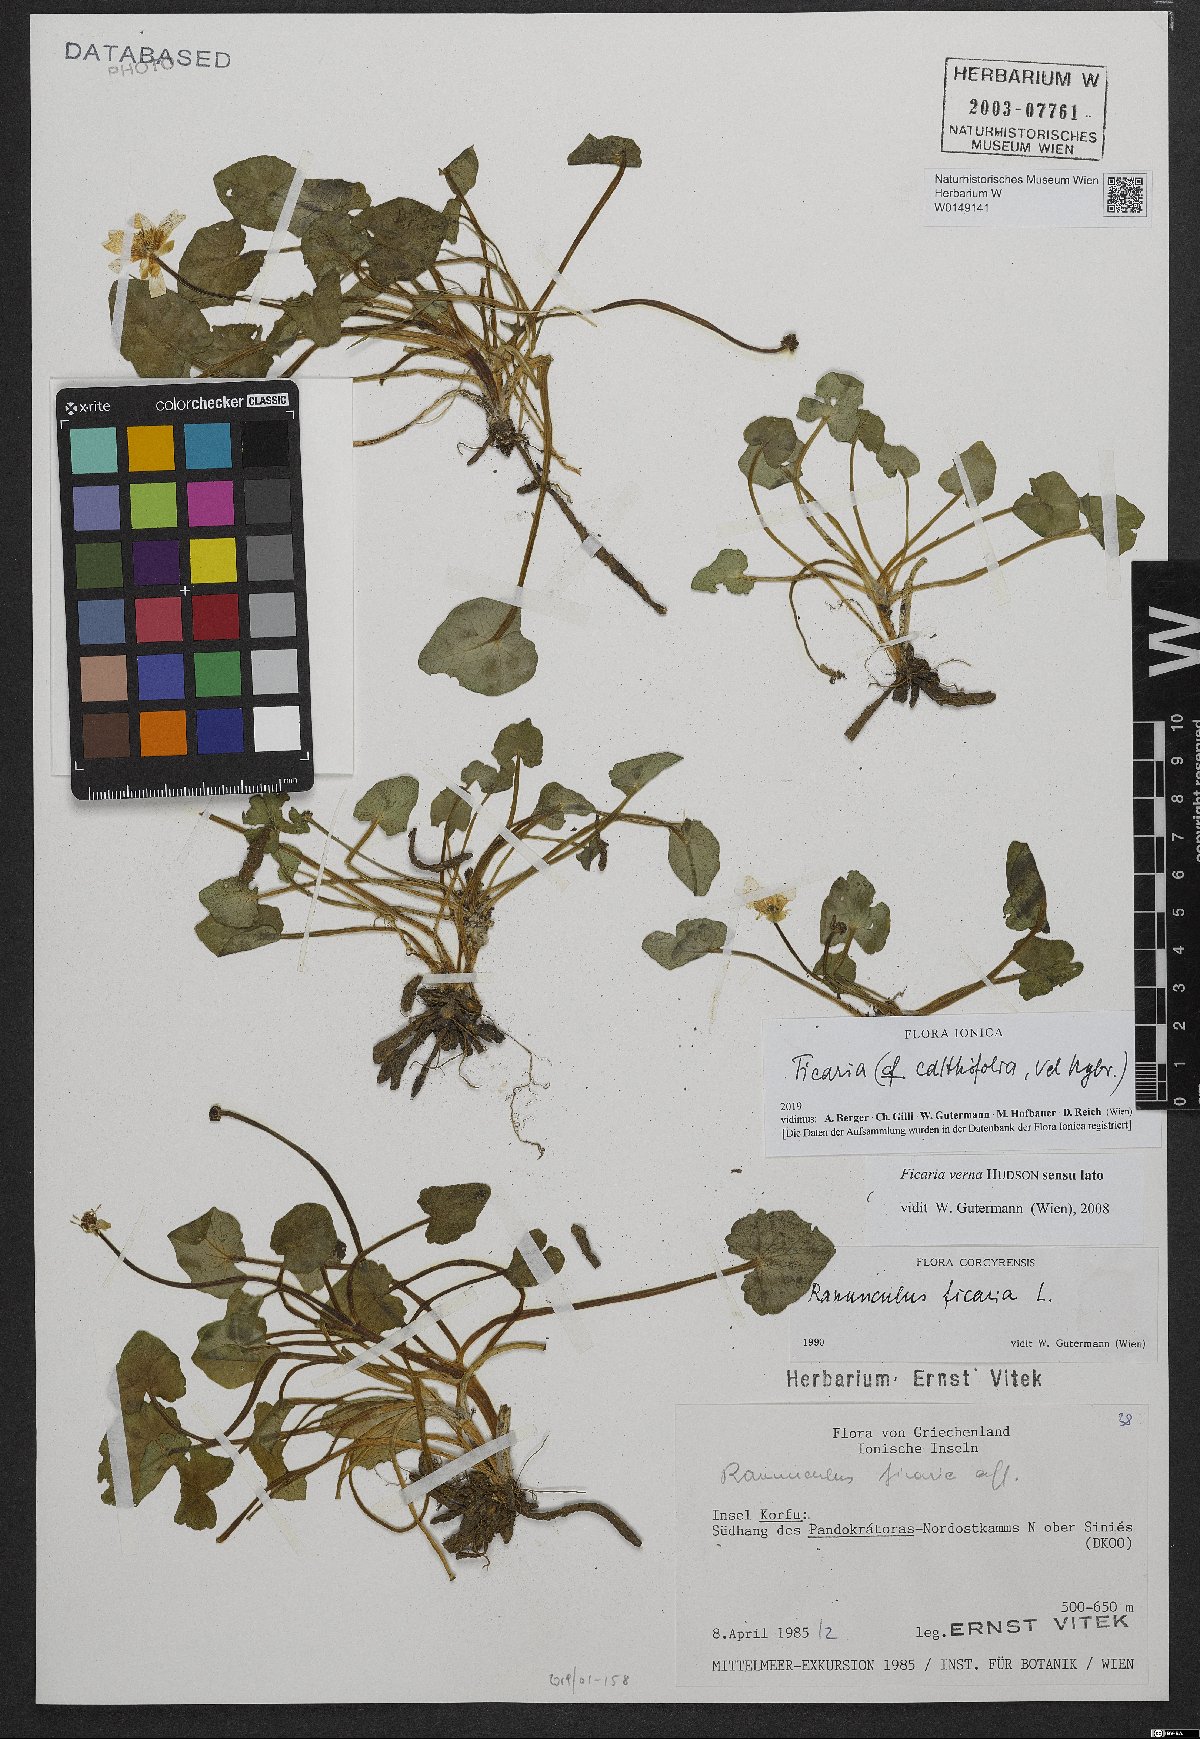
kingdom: Plantae
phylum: Tracheophyta
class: Magnoliopsida
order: Ranunculales
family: Ranunculaceae
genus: Ficaria
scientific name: Ficaria calthifolia
